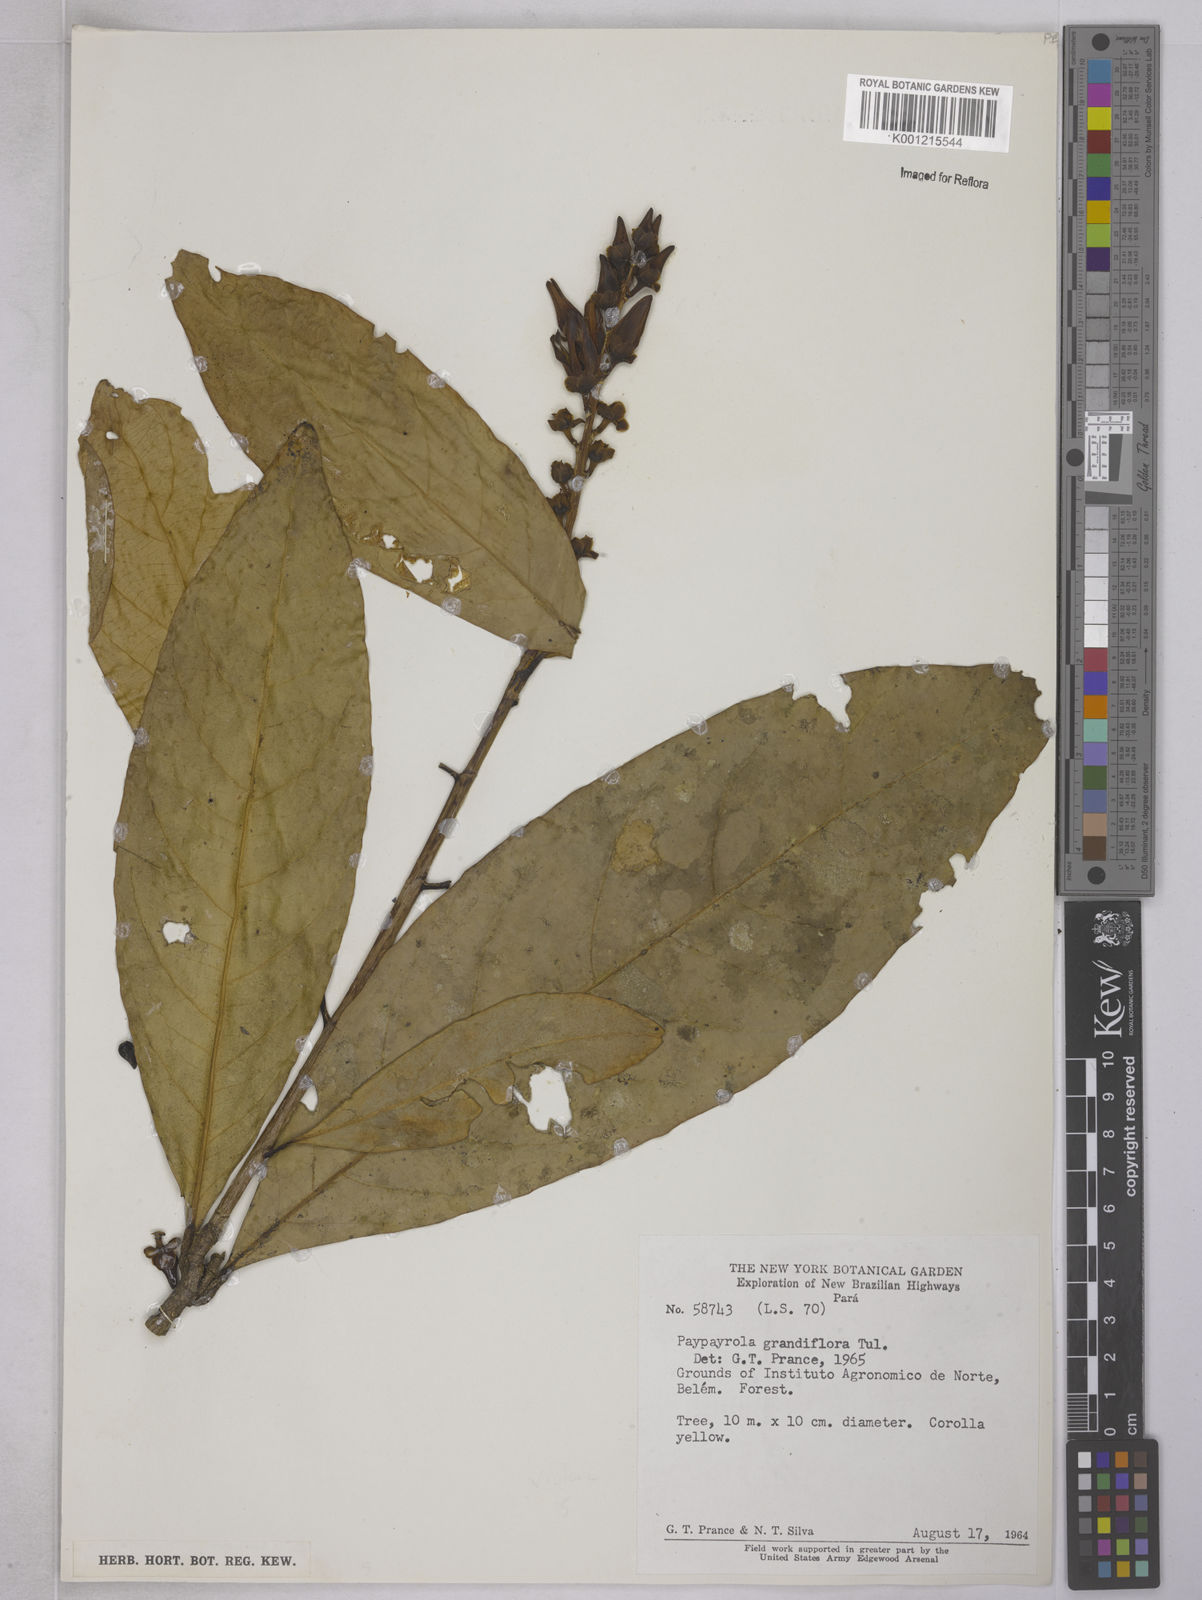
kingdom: Plantae
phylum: Tracheophyta
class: Magnoliopsida
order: Malpighiales
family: Violaceae
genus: Paypayrola
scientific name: Paypayrola grandiflora
